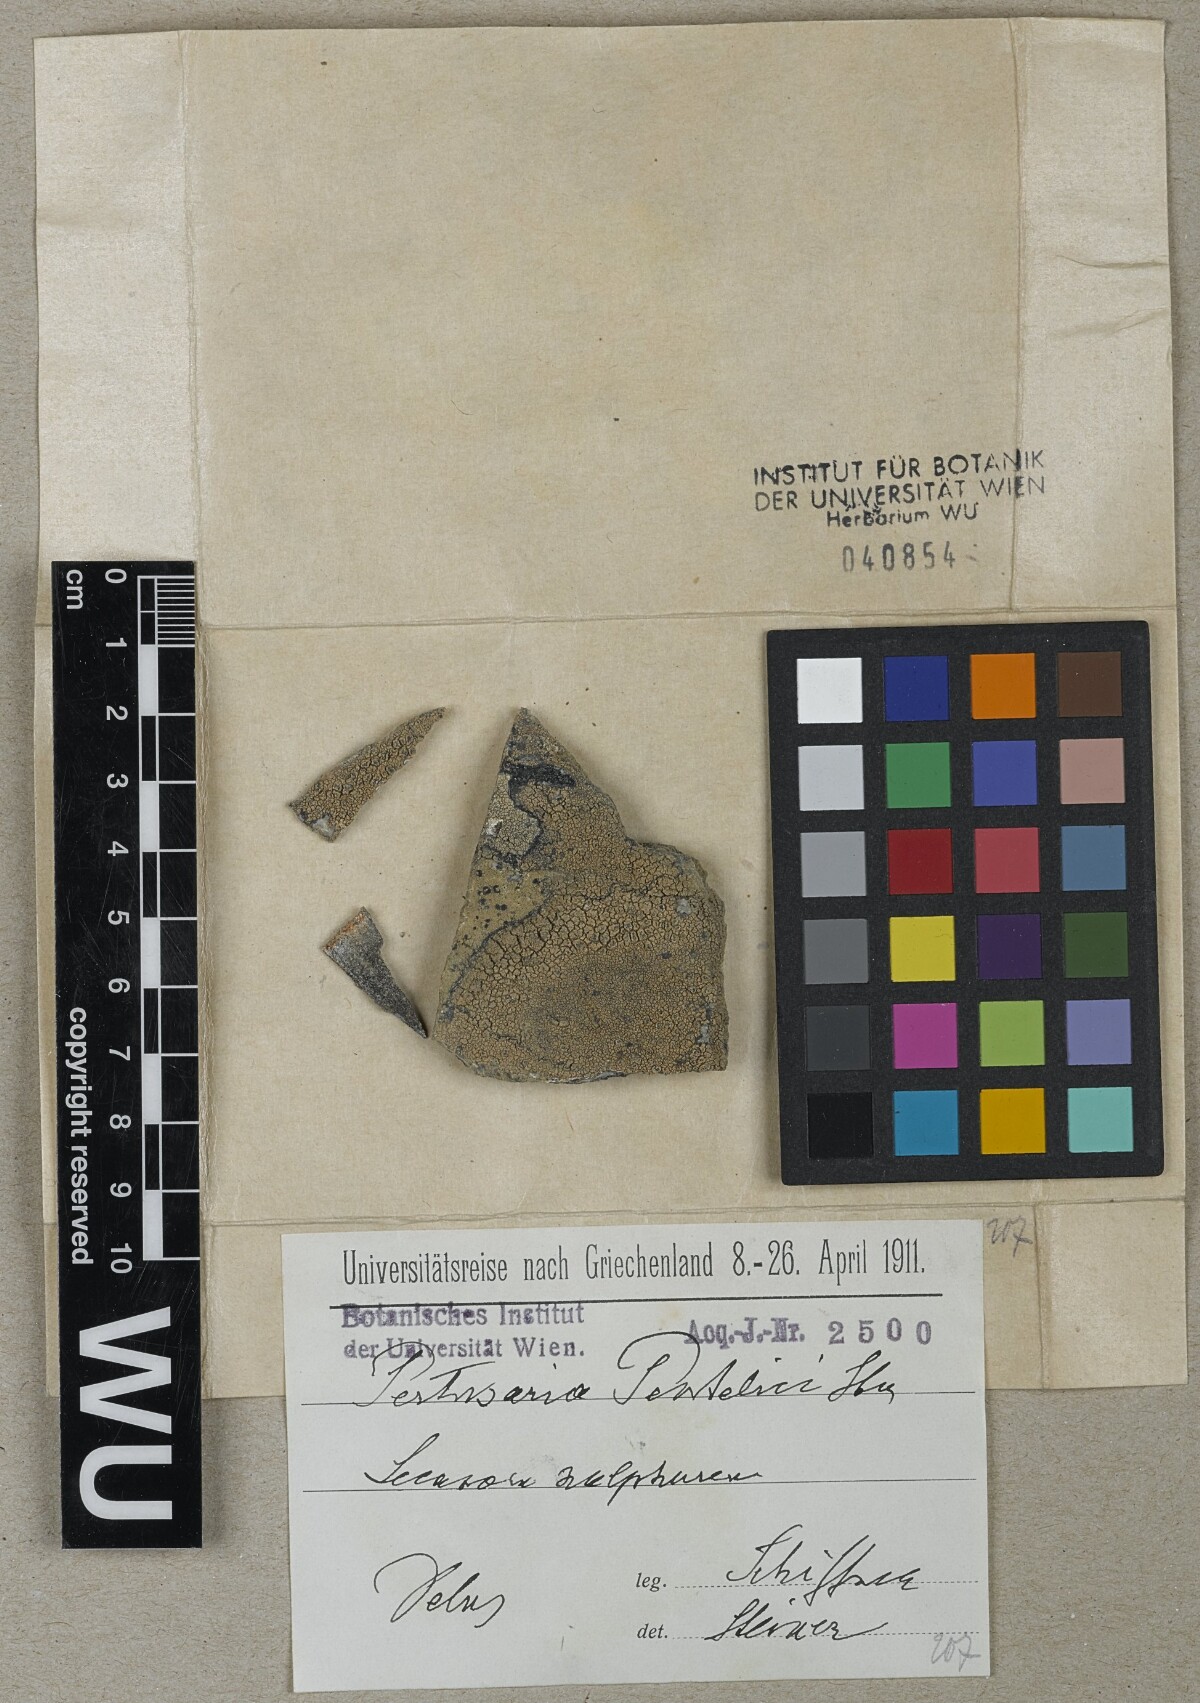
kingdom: Fungi
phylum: Ascomycota
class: Lecanoromycetes
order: Pertusariales
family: Pertusariaceae
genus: Pertusaria
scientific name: Pertusaria pentelici
